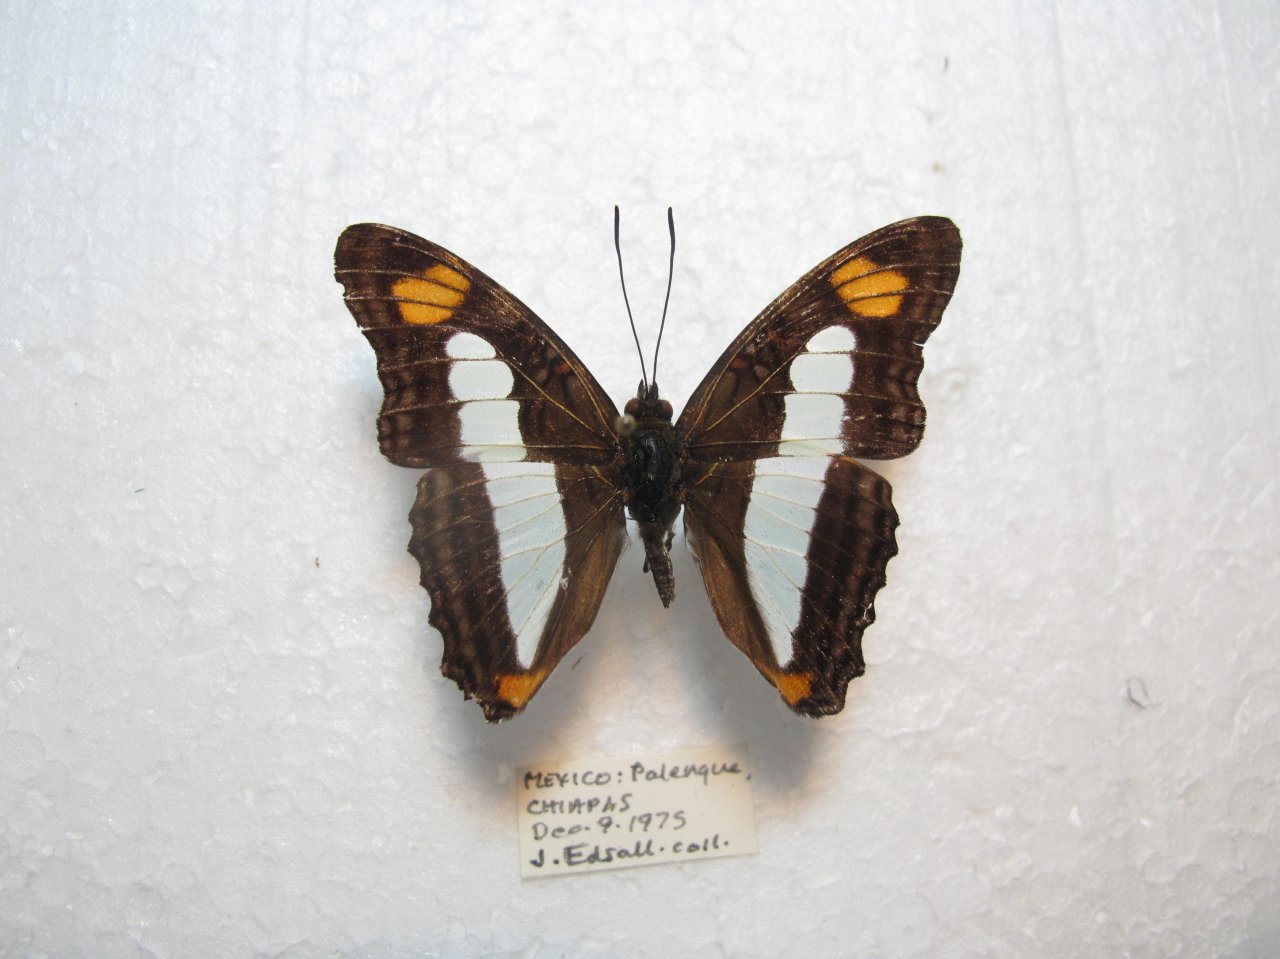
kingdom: Animalia
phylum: Arthropoda
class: Insecta
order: Lepidoptera
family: Nymphalidae
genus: Limenitis
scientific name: Limenitis paraena
